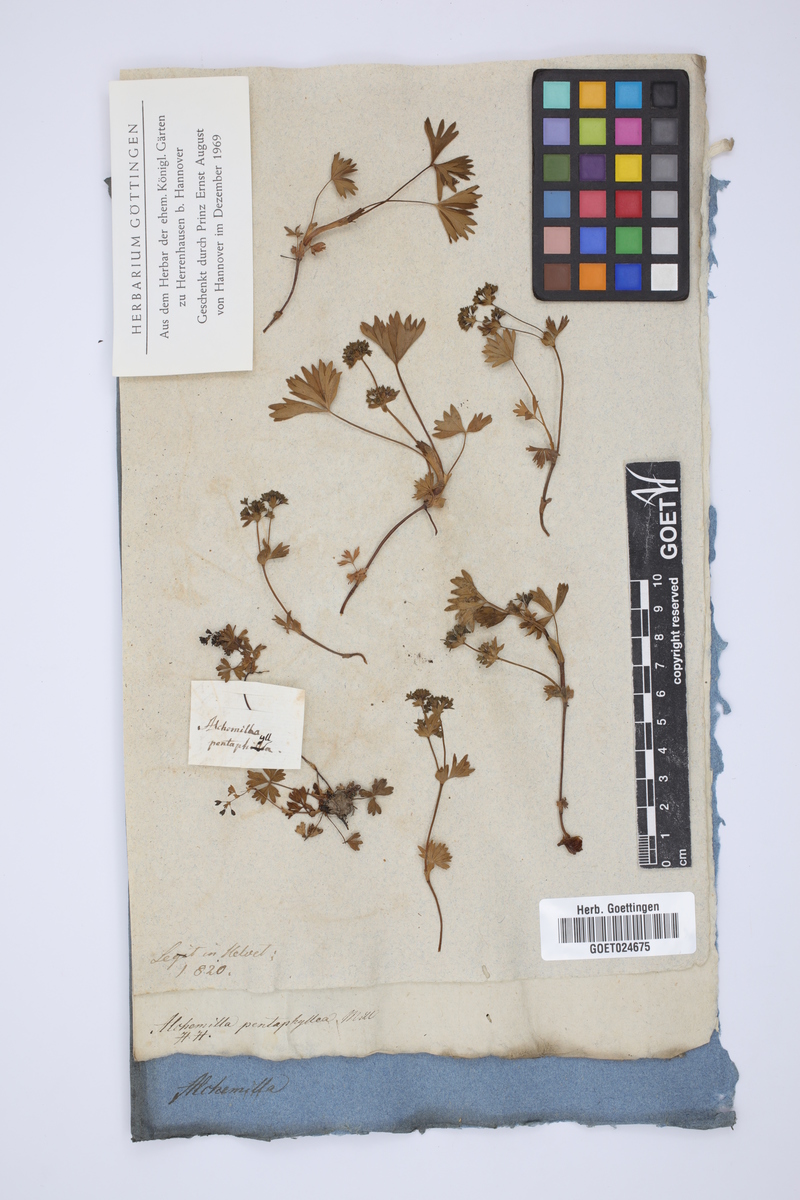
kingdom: Plantae
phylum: Tracheophyta
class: Magnoliopsida
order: Rosales
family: Rosaceae
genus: Alchemilla
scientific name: Alchemilla pentaphyllea
